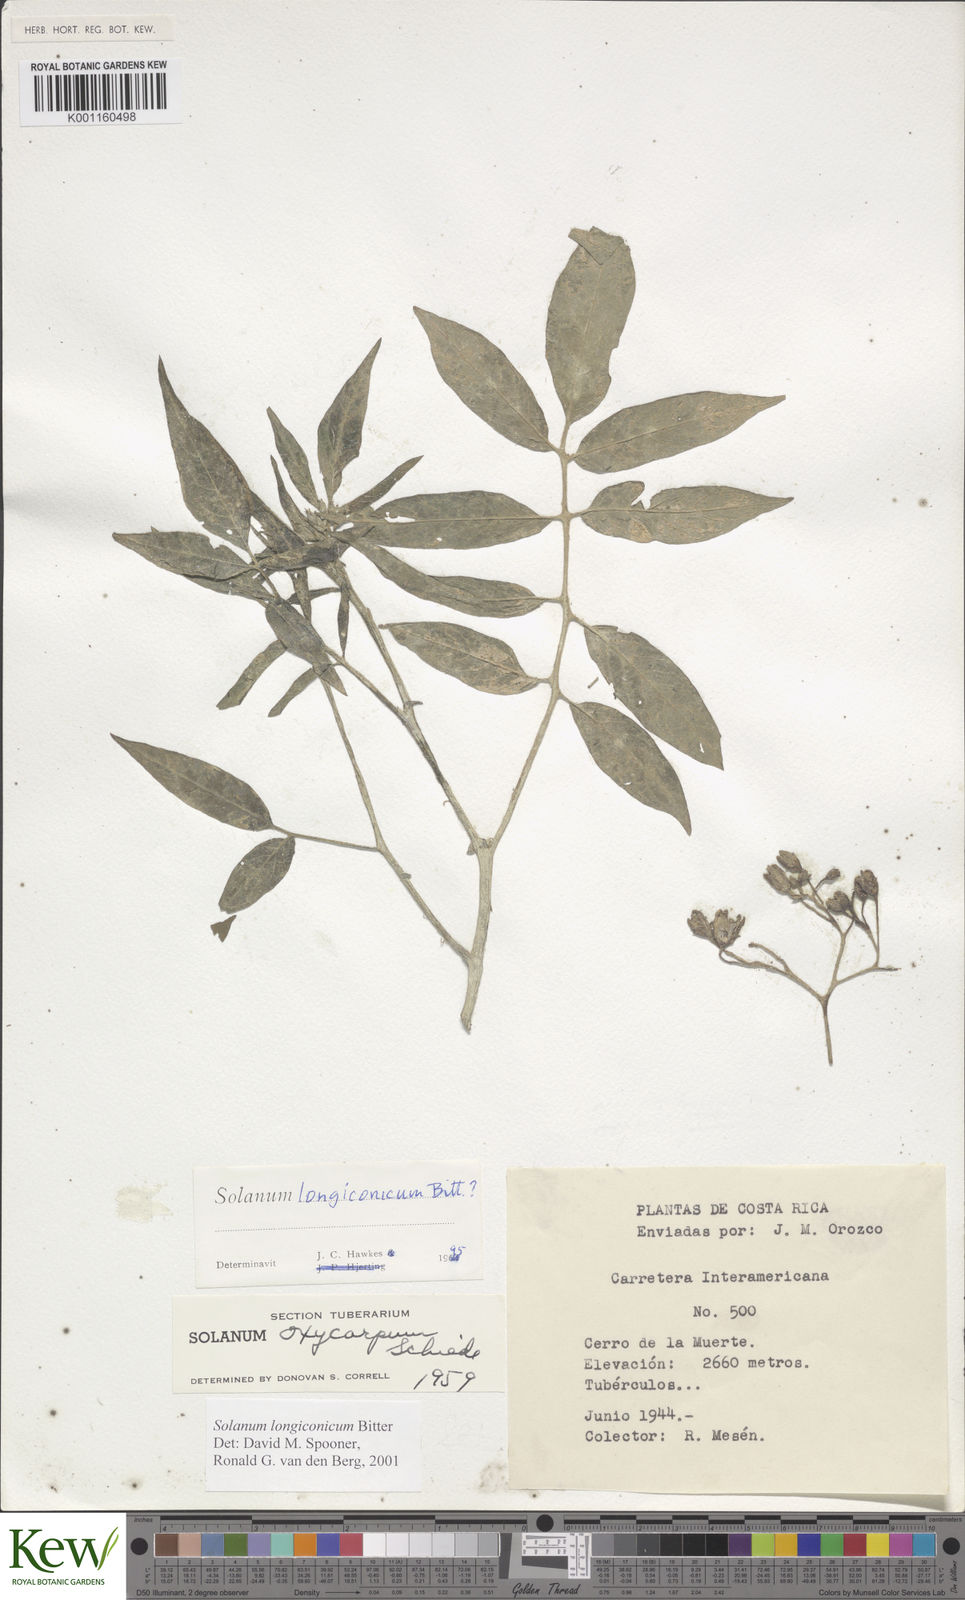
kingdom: Plantae
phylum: Tracheophyta
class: Magnoliopsida
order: Solanales
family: Solanaceae
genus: Solanum
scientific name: Solanum longiconicum
